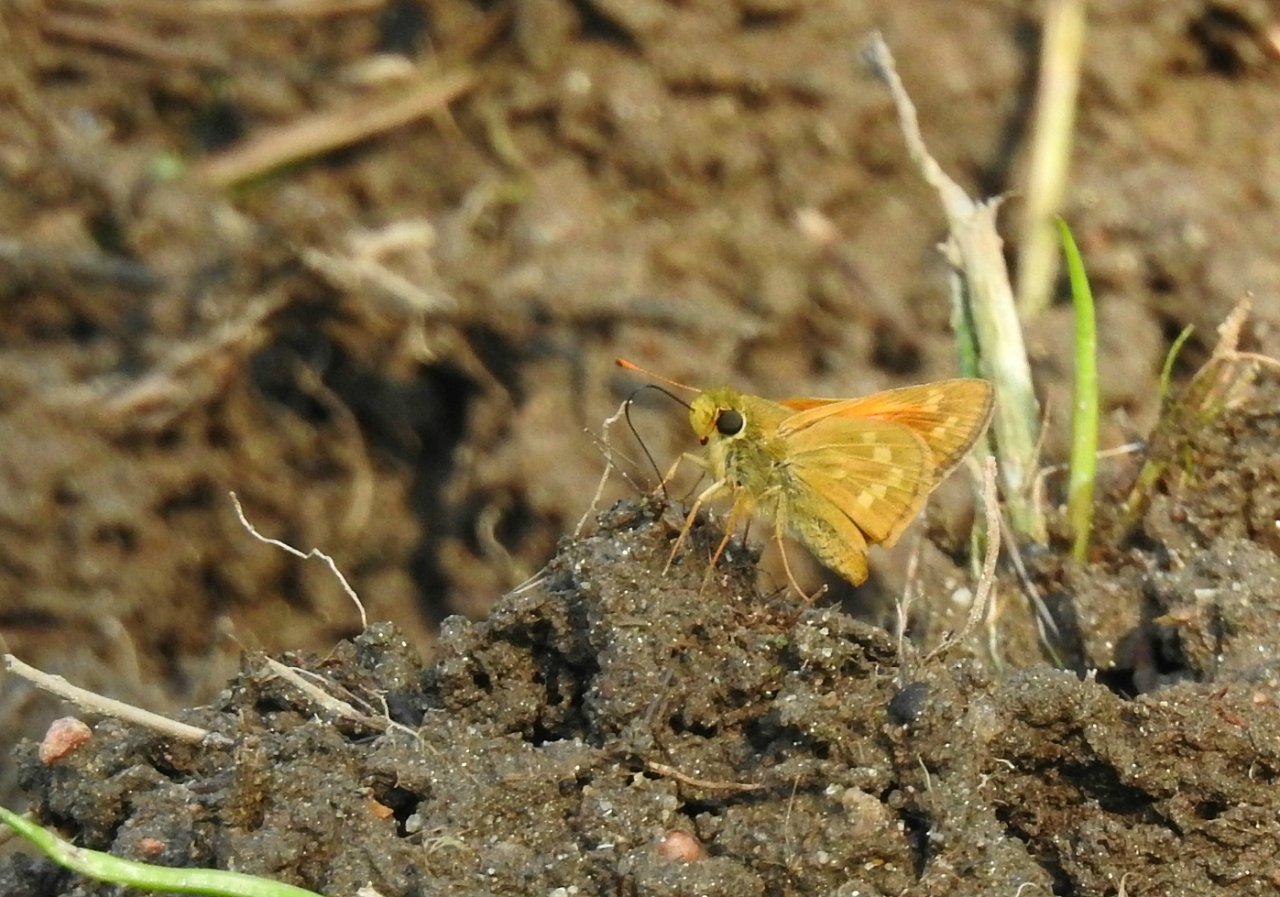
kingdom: Animalia
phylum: Arthropoda
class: Insecta
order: Lepidoptera
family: Hesperiidae
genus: Hesperia
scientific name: Hesperia sassacus
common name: Sassacus Skipper
